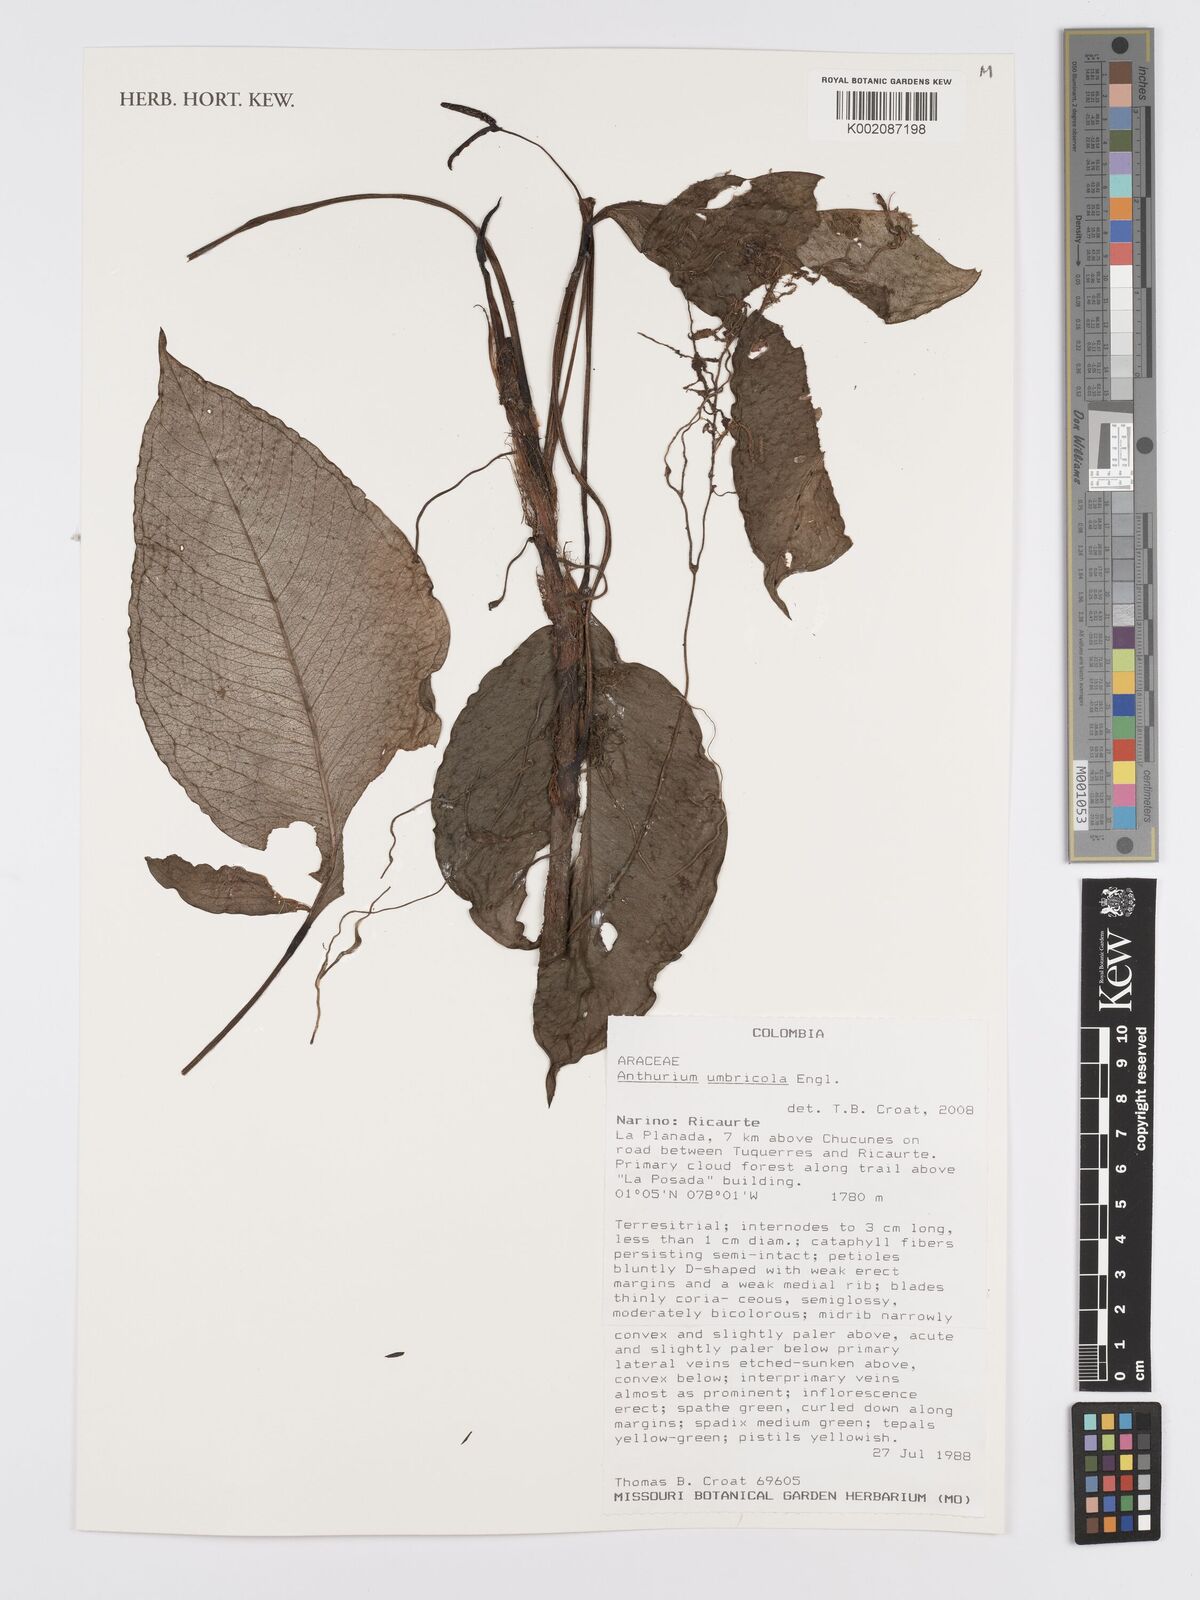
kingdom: Plantae
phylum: Tracheophyta
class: Liliopsida
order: Alismatales
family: Araceae
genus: Anthurium
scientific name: Anthurium umbricola
